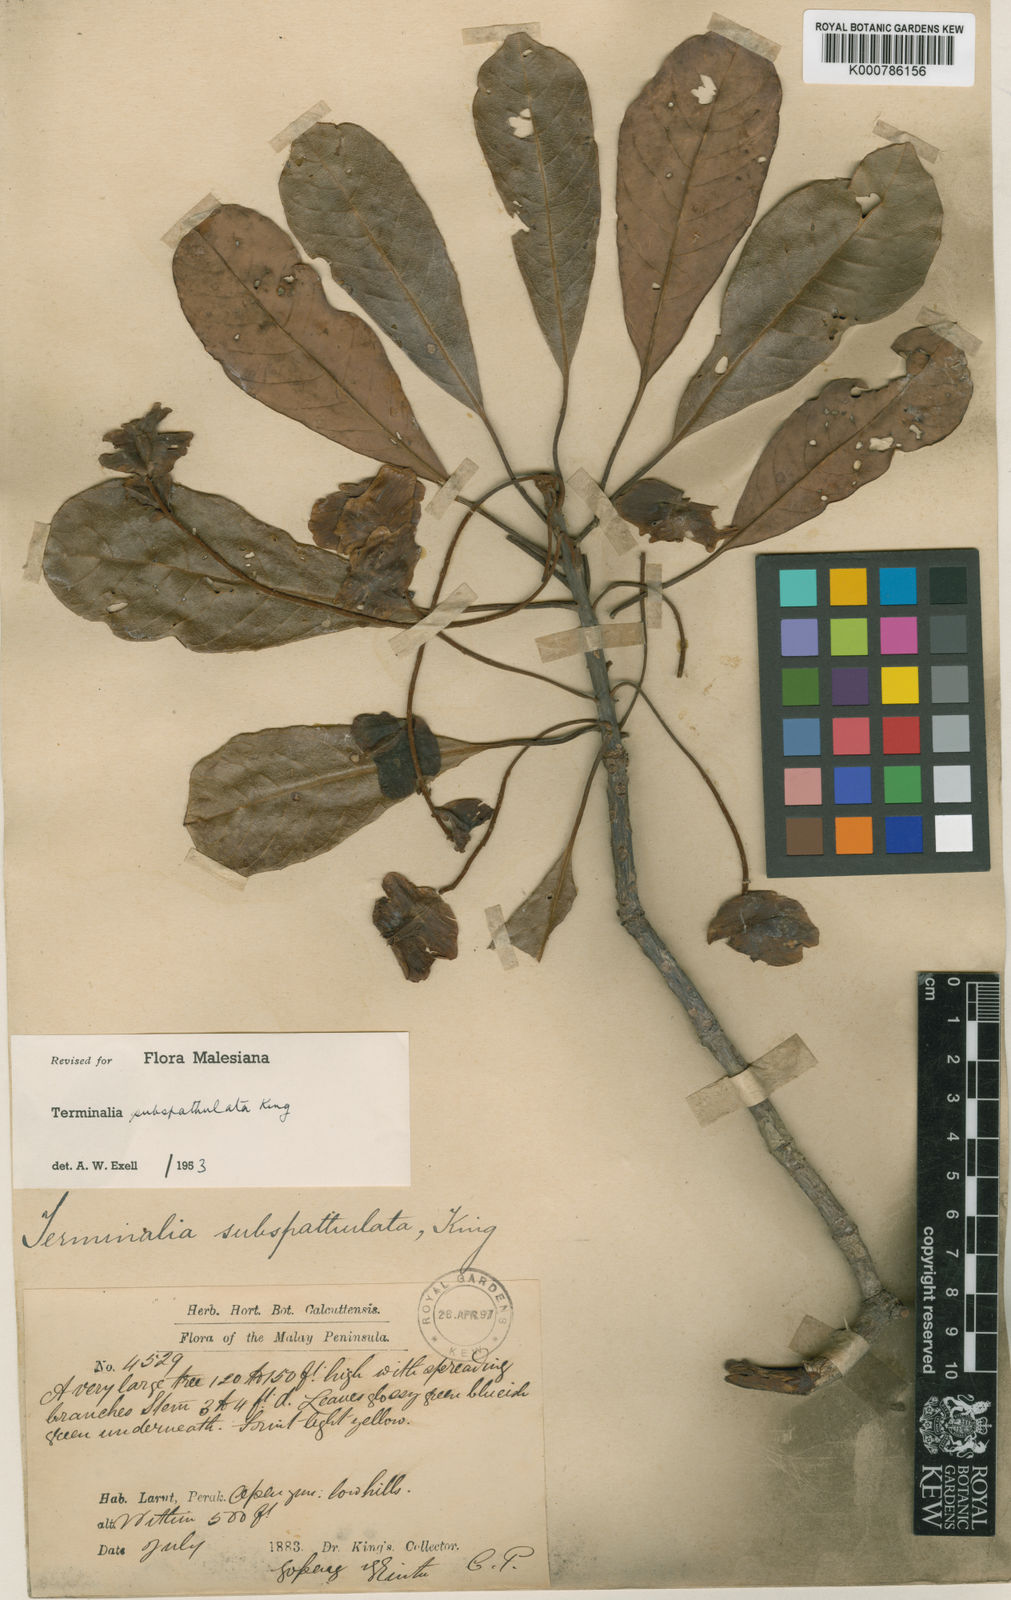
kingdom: Plantae
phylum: Tracheophyta
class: Magnoliopsida
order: Myrtales
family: Combretaceae
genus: Terminalia
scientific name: Terminalia subspathulata
